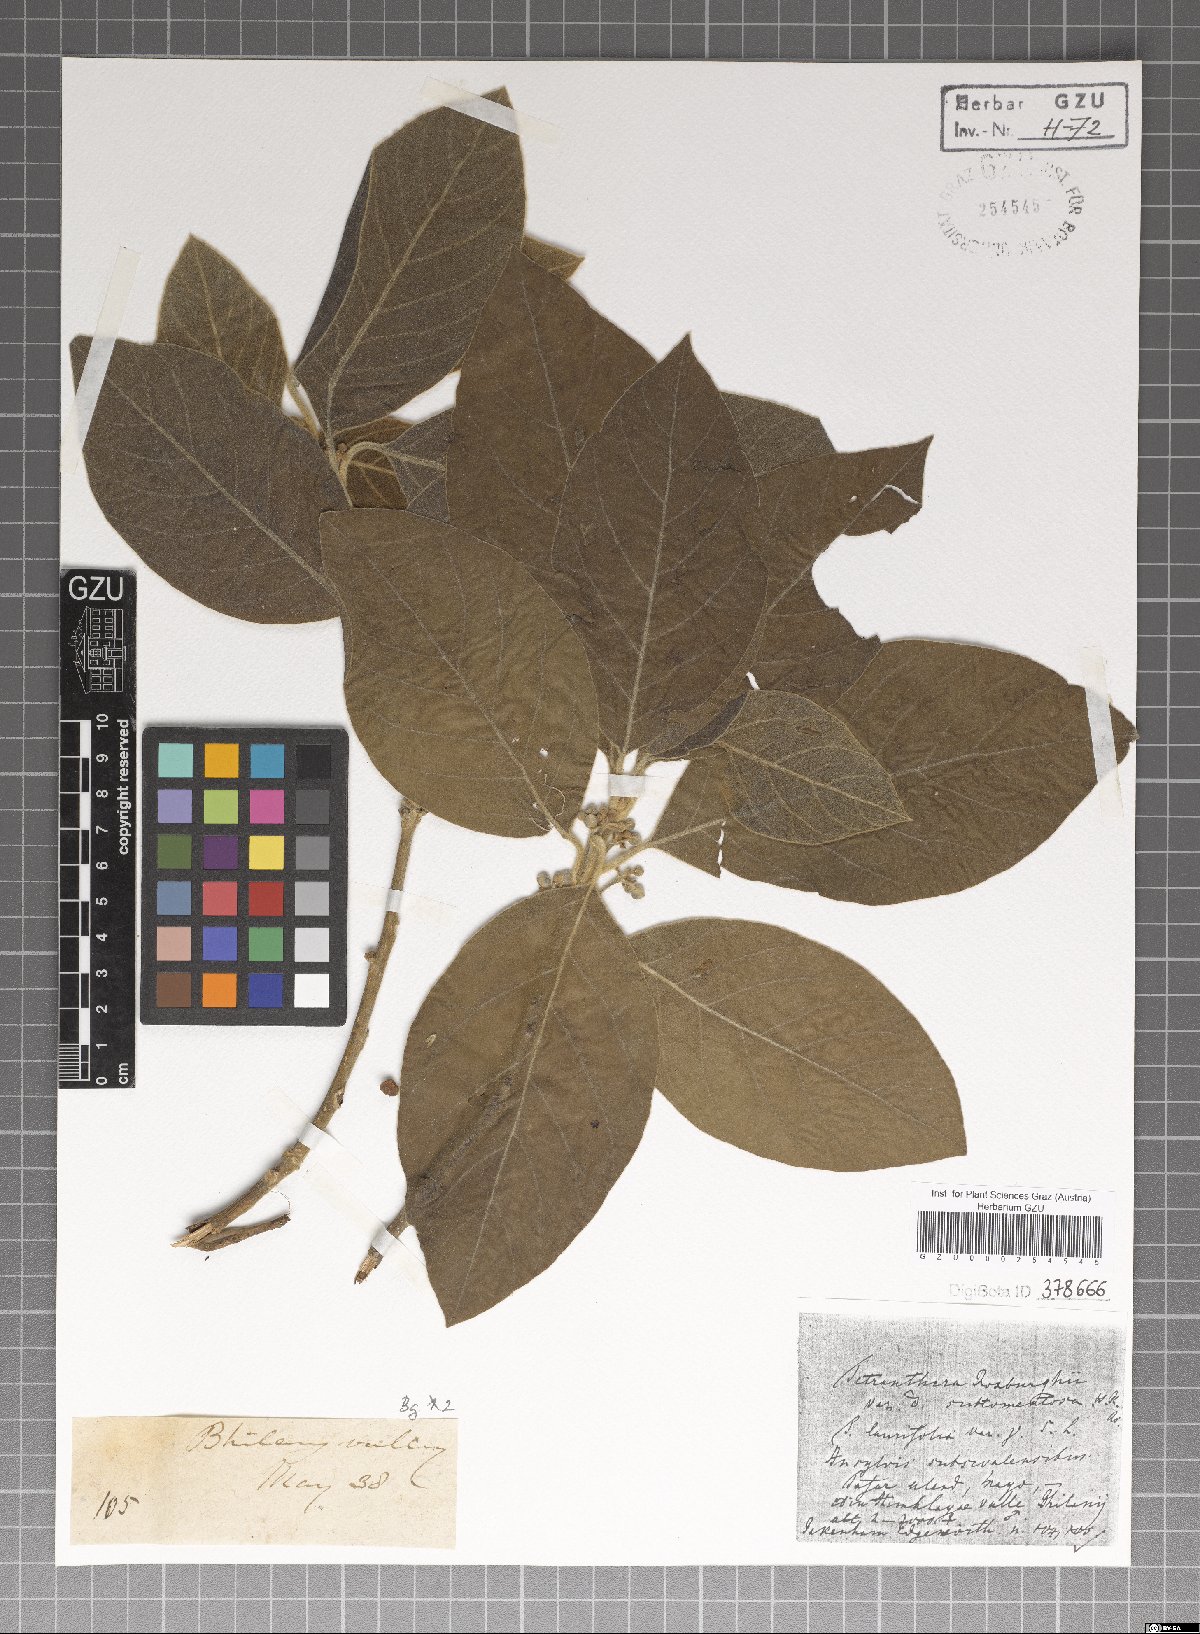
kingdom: Plantae
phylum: Tracheophyta
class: Magnoliopsida
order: Laurales
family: Lauraceae
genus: Litsea
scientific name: Litsea glutinosa
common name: Indian-laurel
